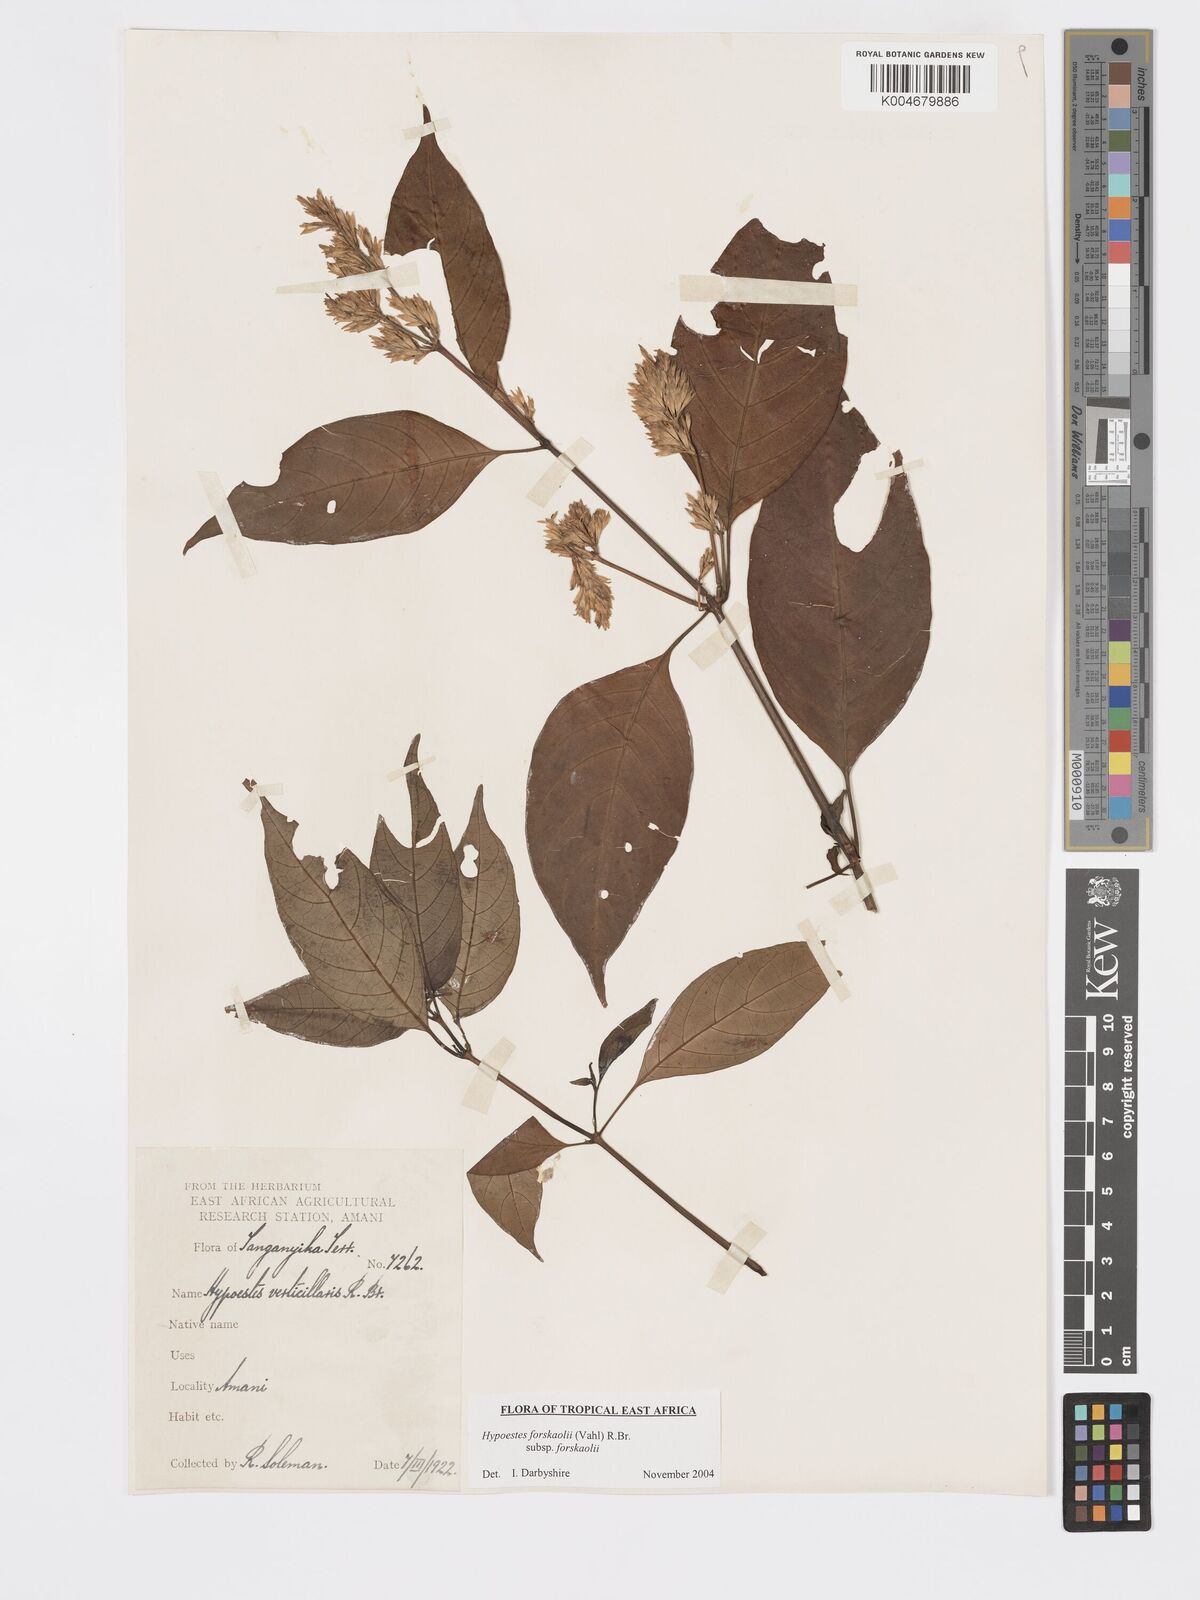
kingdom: Plantae
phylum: Tracheophyta
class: Magnoliopsida
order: Lamiales
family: Acanthaceae
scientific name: Acanthaceae
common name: Acanthaceae
